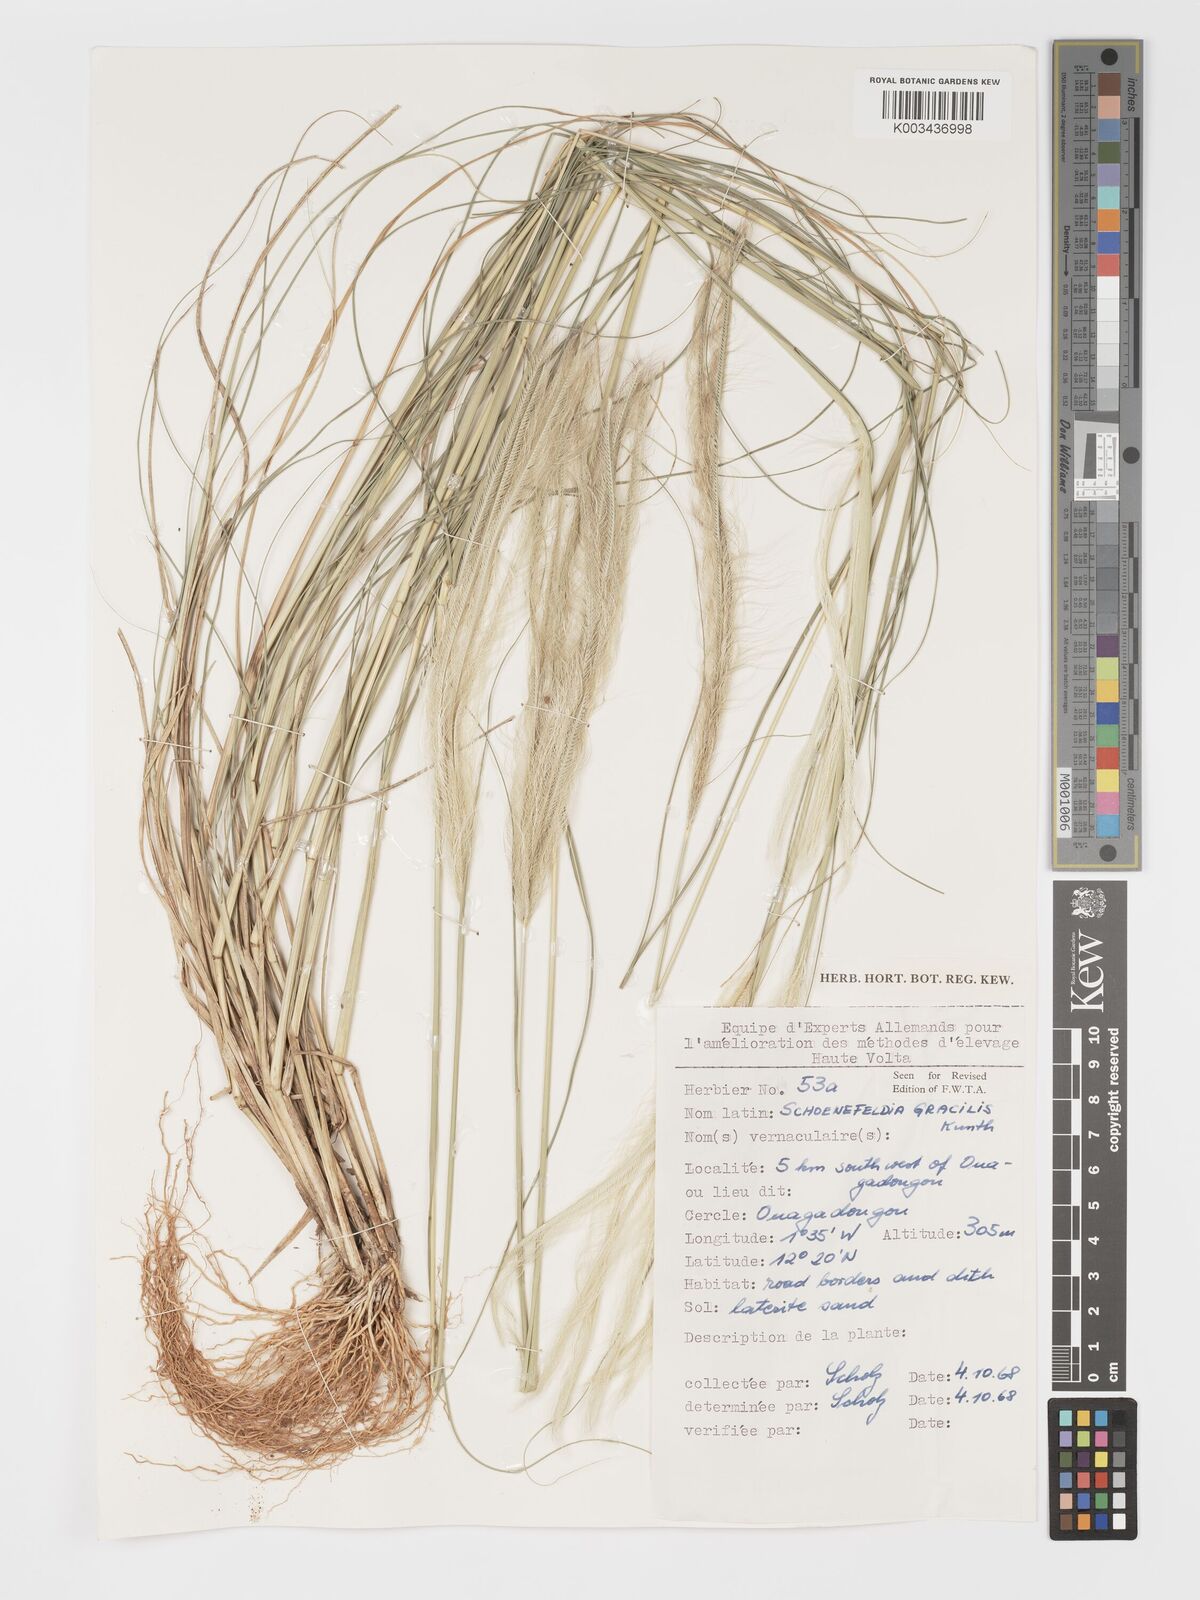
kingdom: Plantae
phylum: Tracheophyta
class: Liliopsida
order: Poales
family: Poaceae
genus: Schoenefeldia
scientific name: Schoenefeldia gracilis
